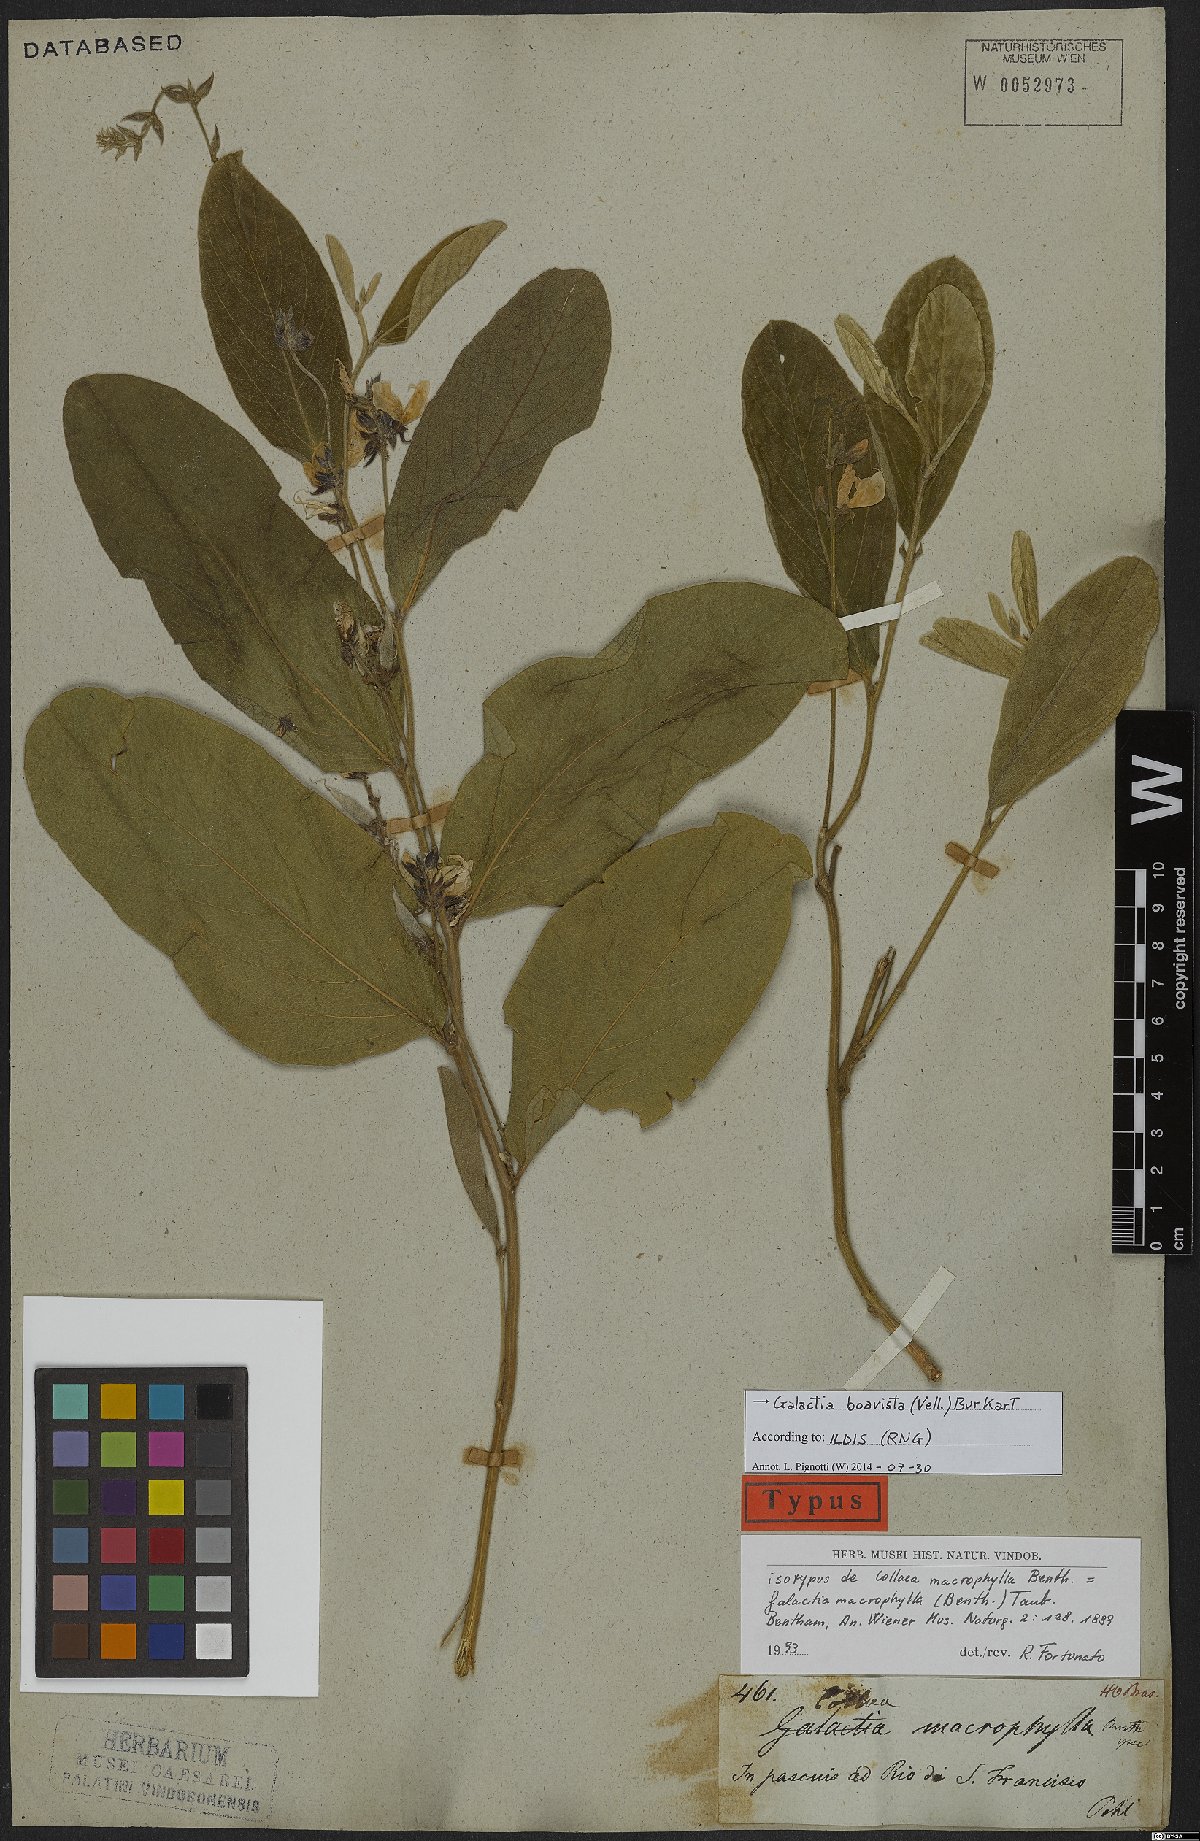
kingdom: Plantae
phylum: Tracheophyta
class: Magnoliopsida
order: Fabales
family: Fabaceae
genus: Cerradicola
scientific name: Cerradicola boavista
